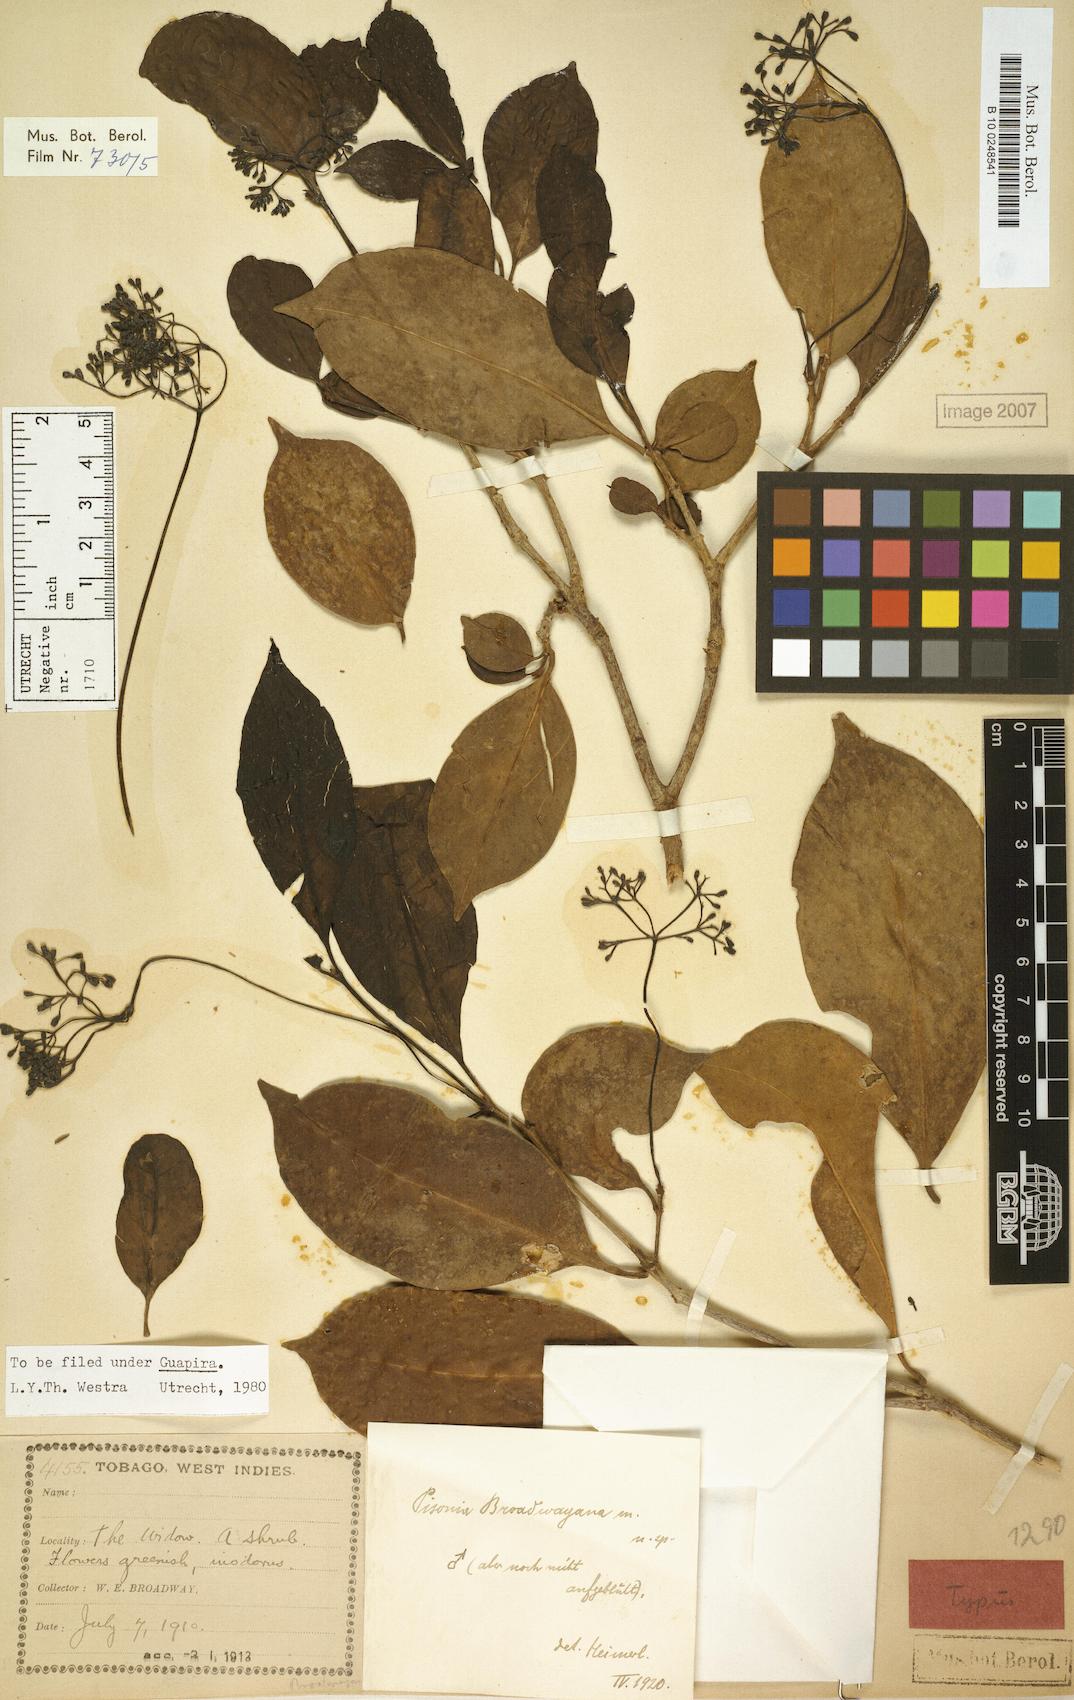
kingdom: Plantae
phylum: Tracheophyta
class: Magnoliopsida
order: Caryophyllales
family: Nyctaginaceae
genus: Guapira
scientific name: Guapira eggersiana
